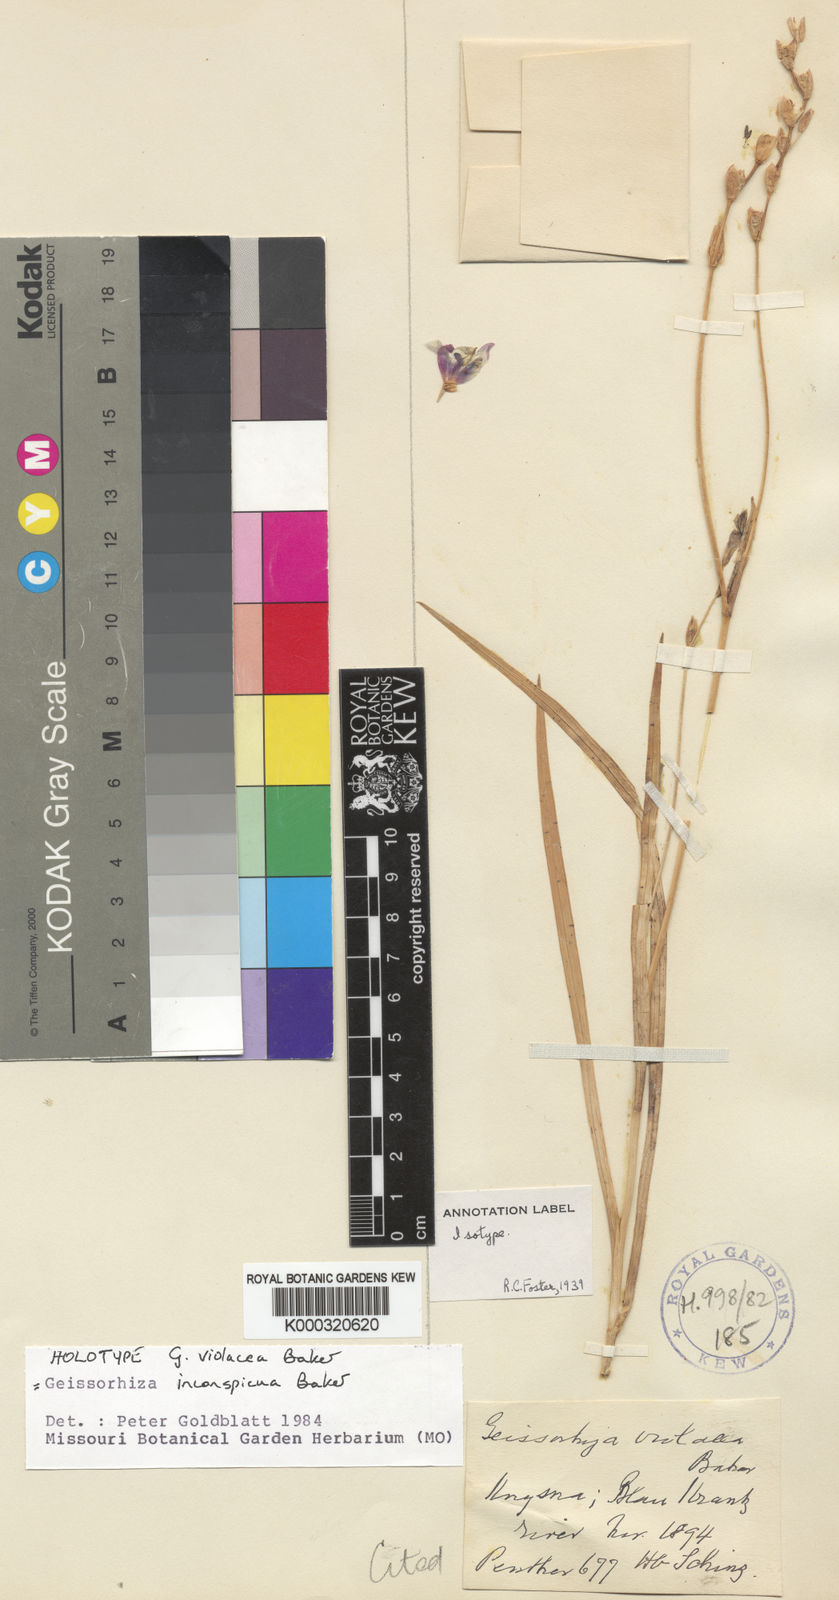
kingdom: Plantae
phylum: Tracheophyta
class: Liliopsida
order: Asparagales
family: Iridaceae
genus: Geissorhiza
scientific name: Geissorhiza inconspicua
